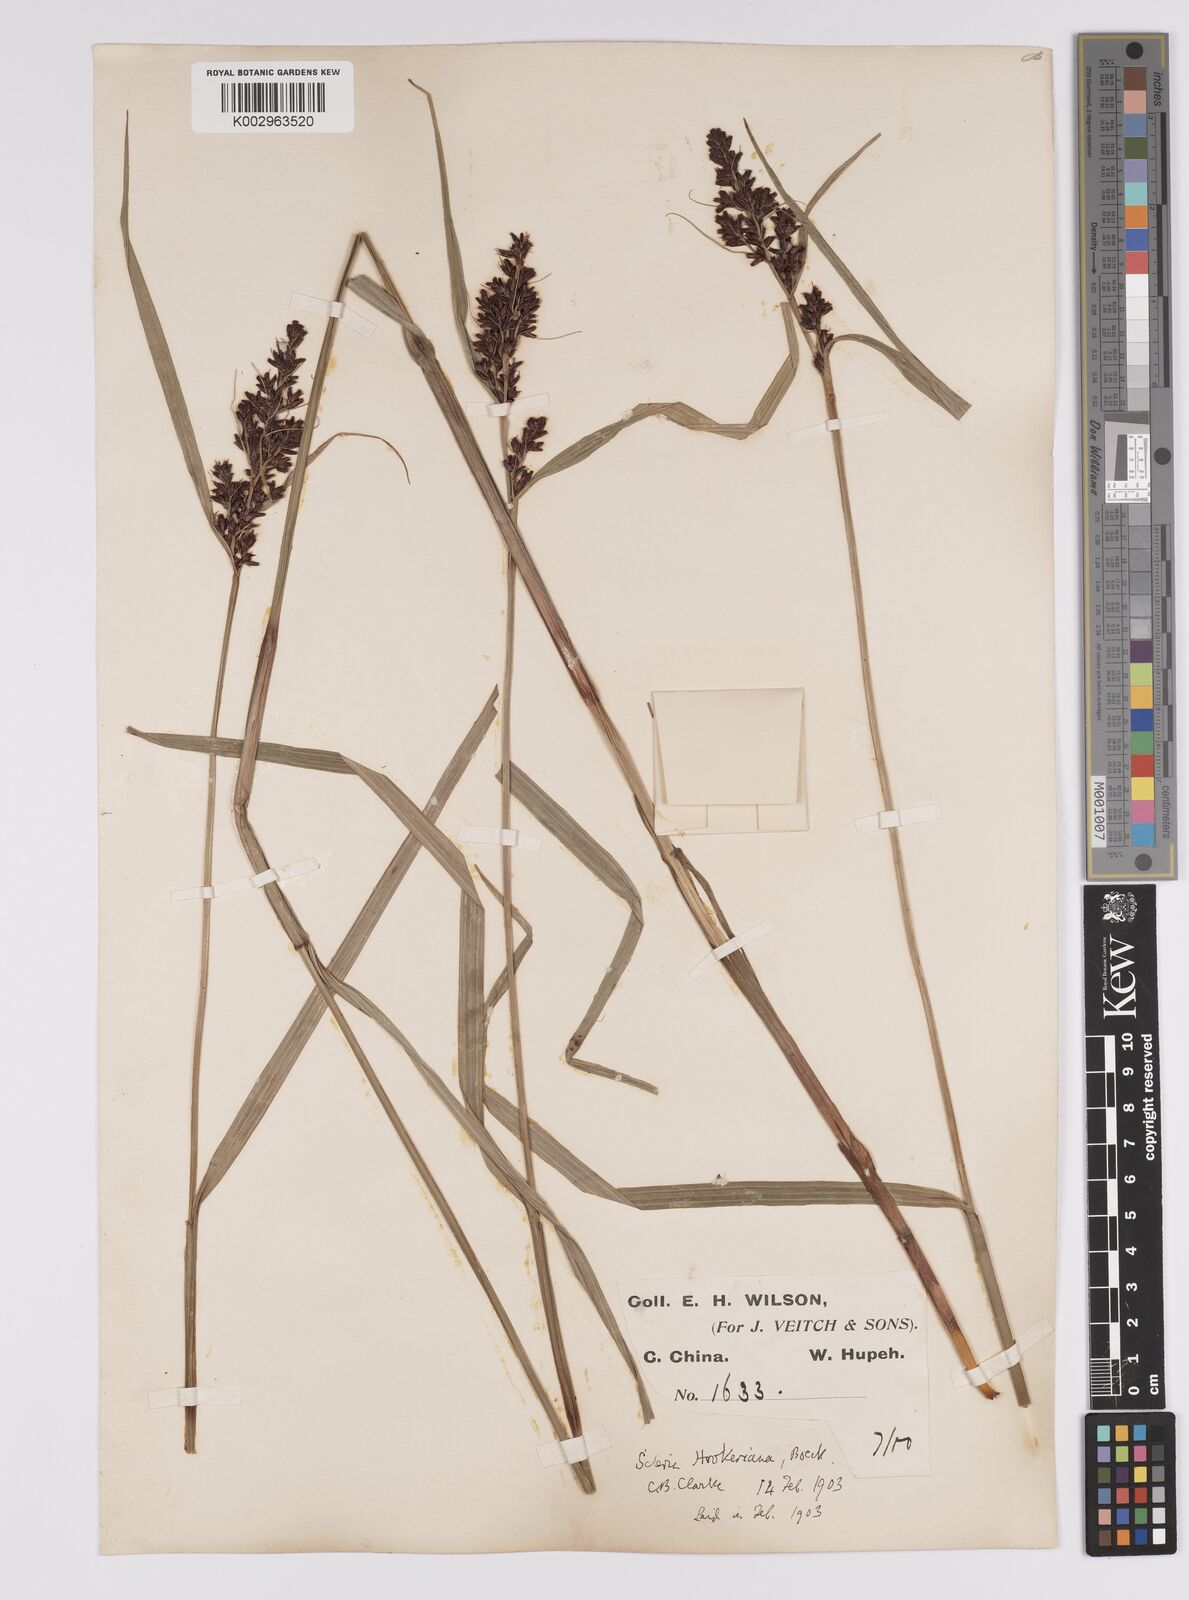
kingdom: Plantae
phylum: Tracheophyta
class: Liliopsida
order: Poales
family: Cyperaceae
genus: Scleria
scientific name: Scleria terrestris
